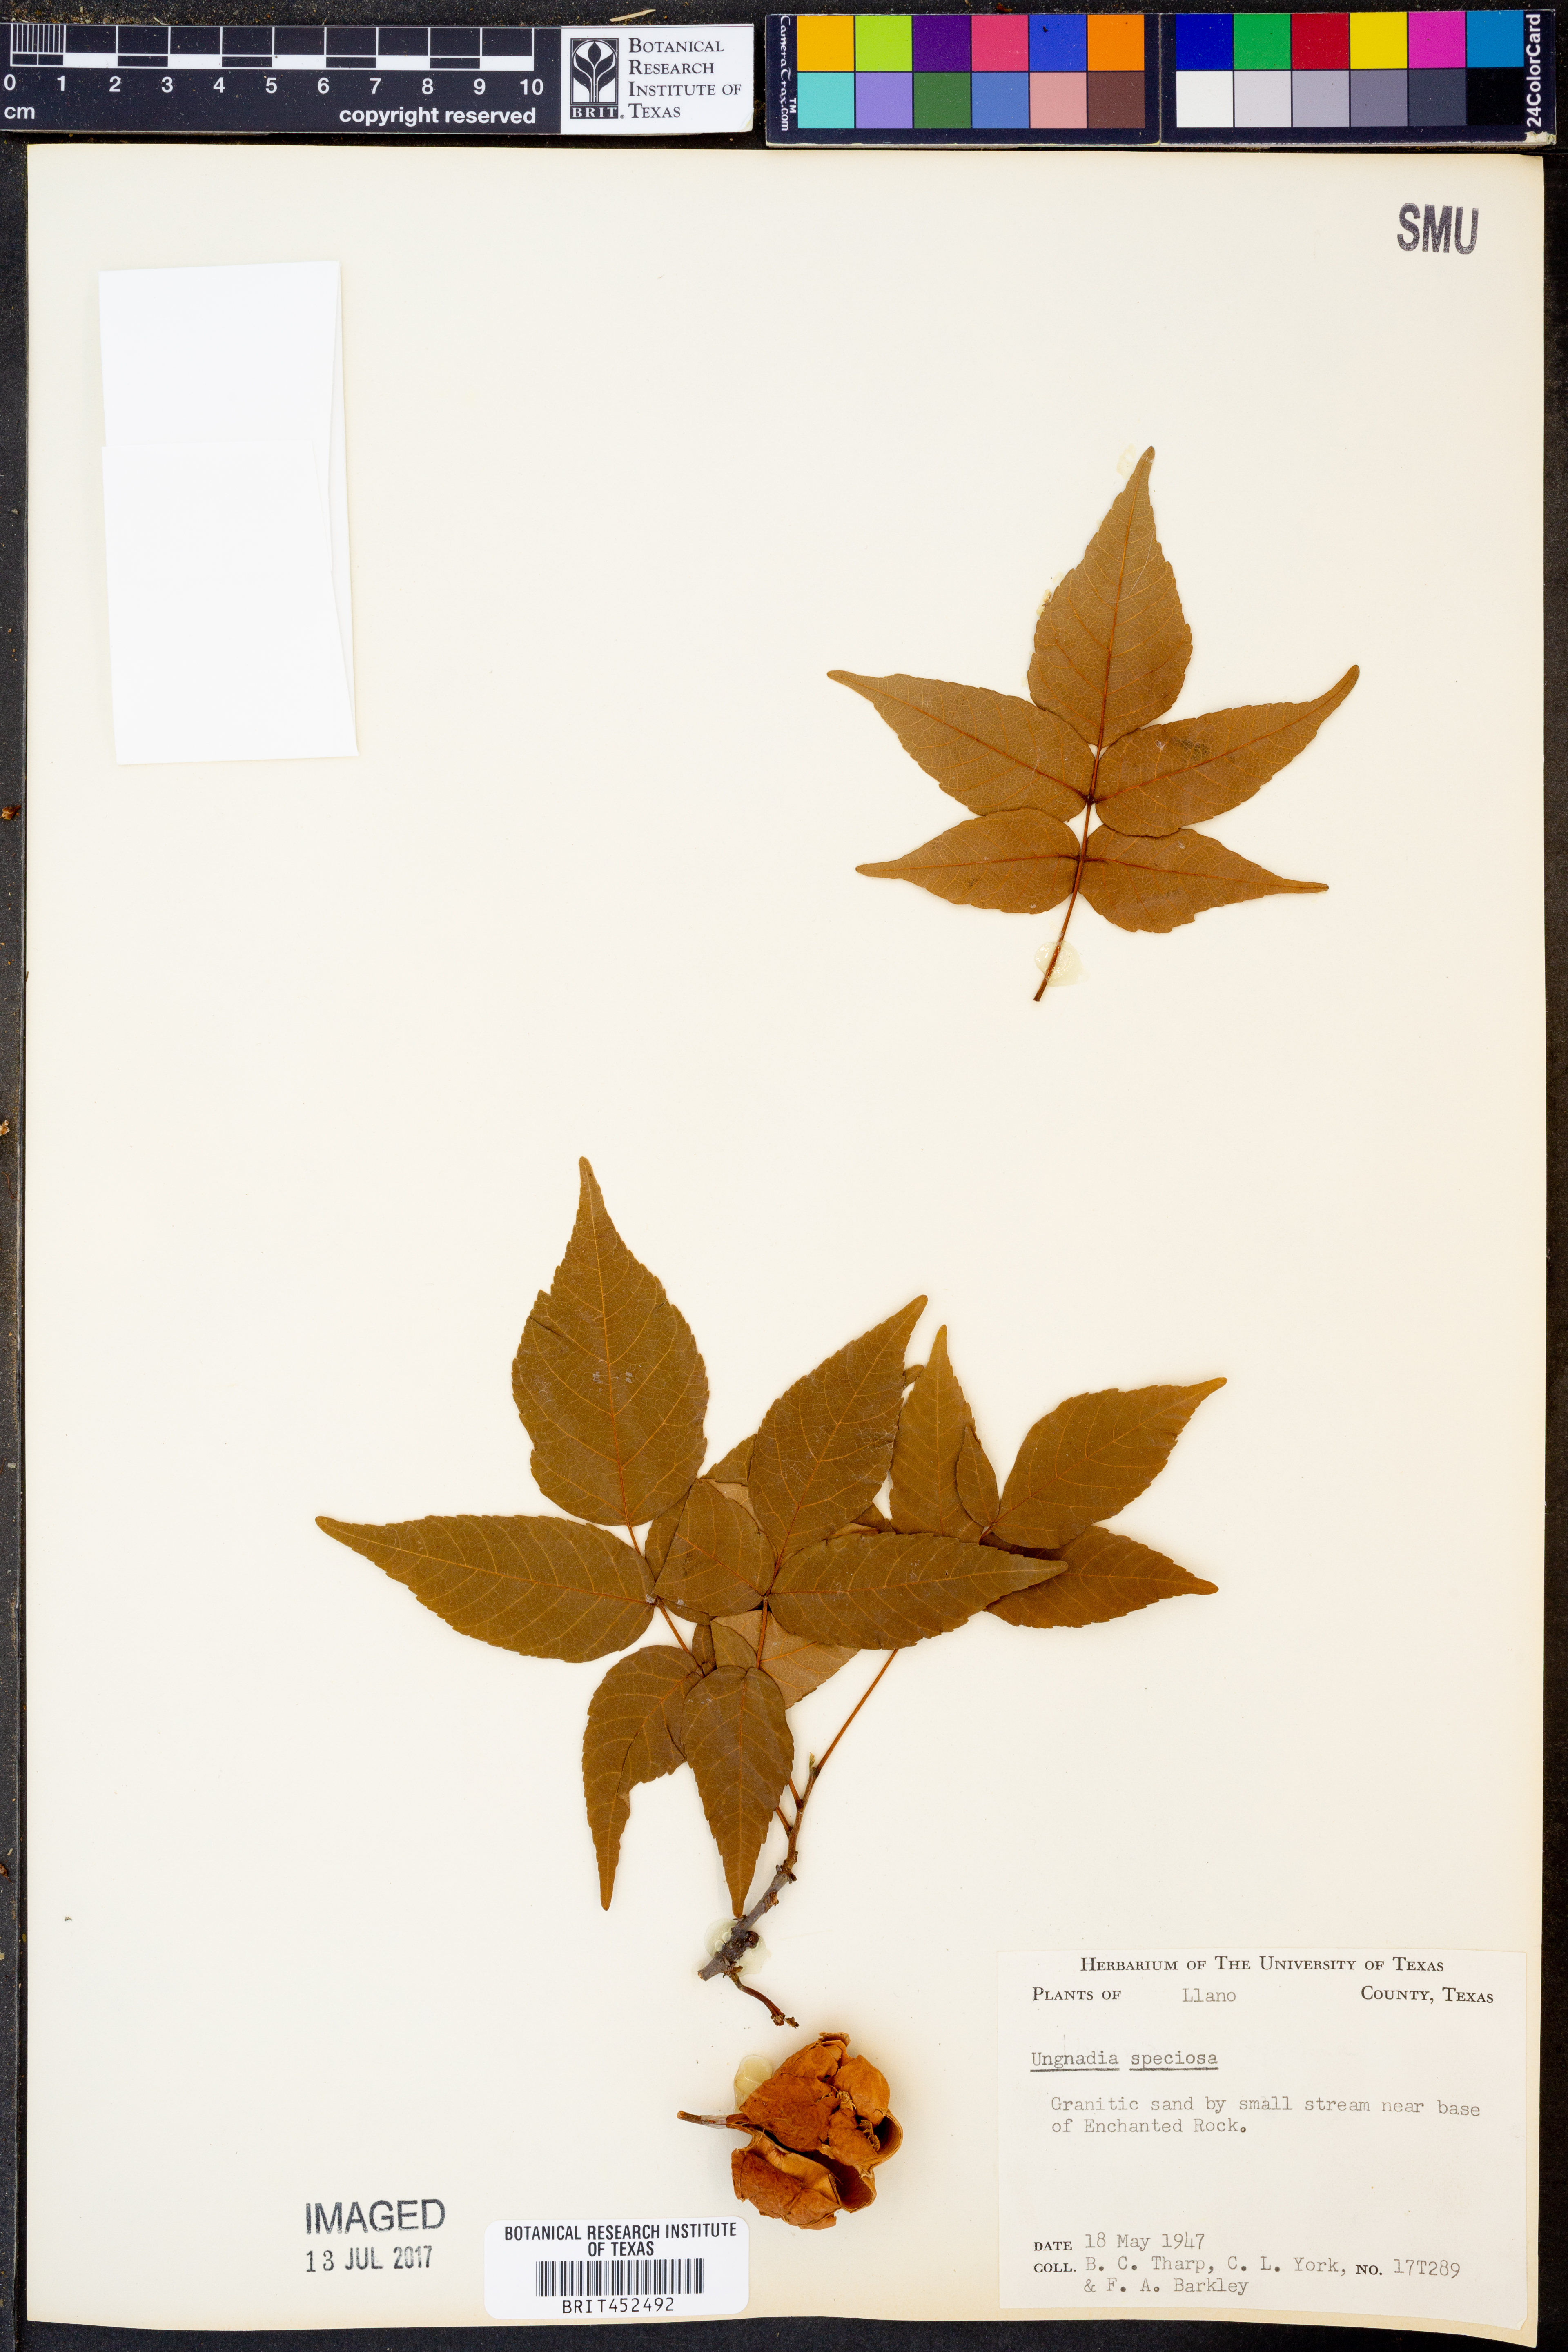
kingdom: Plantae
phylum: Tracheophyta
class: Magnoliopsida
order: Sapindales
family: Sapindaceae
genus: Ungnadia
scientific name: Ungnadia speciosa
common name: Texas-buckeye
